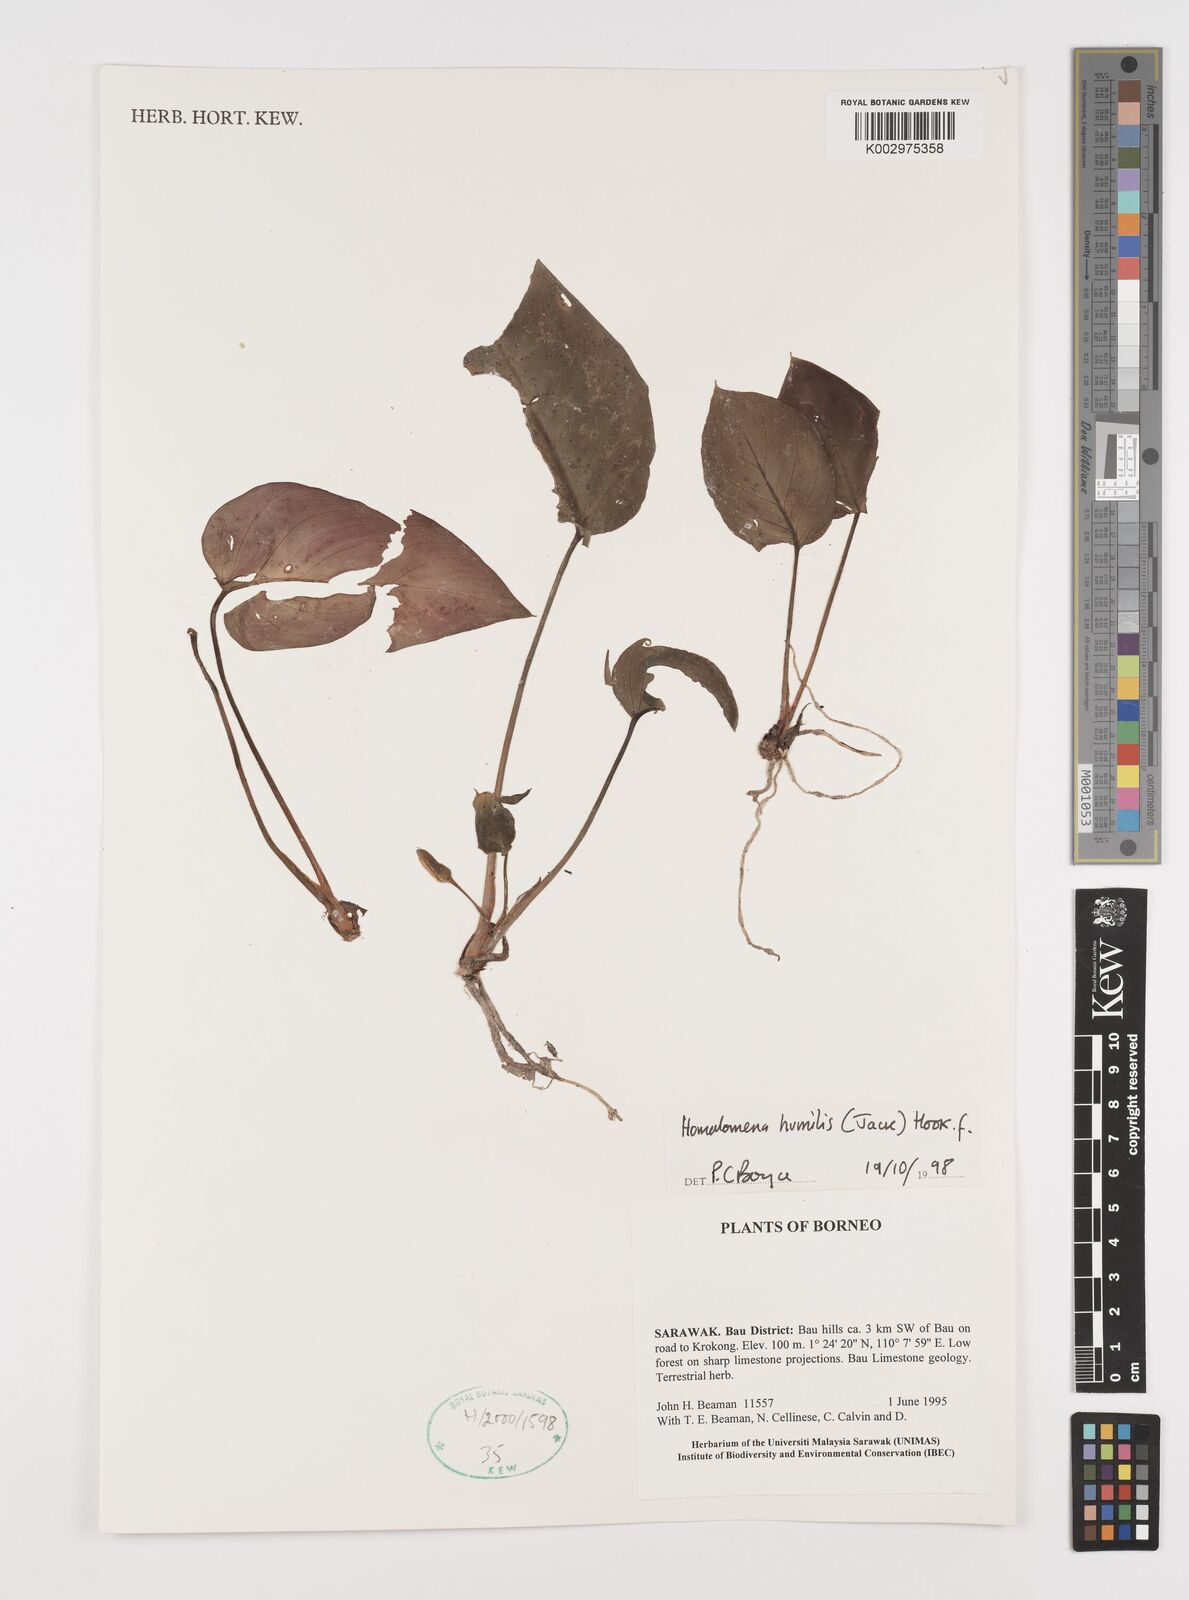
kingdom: Plantae
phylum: Tracheophyta
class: Liliopsida
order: Alismatales
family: Araceae
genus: Homalomena
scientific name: Homalomena humilis
